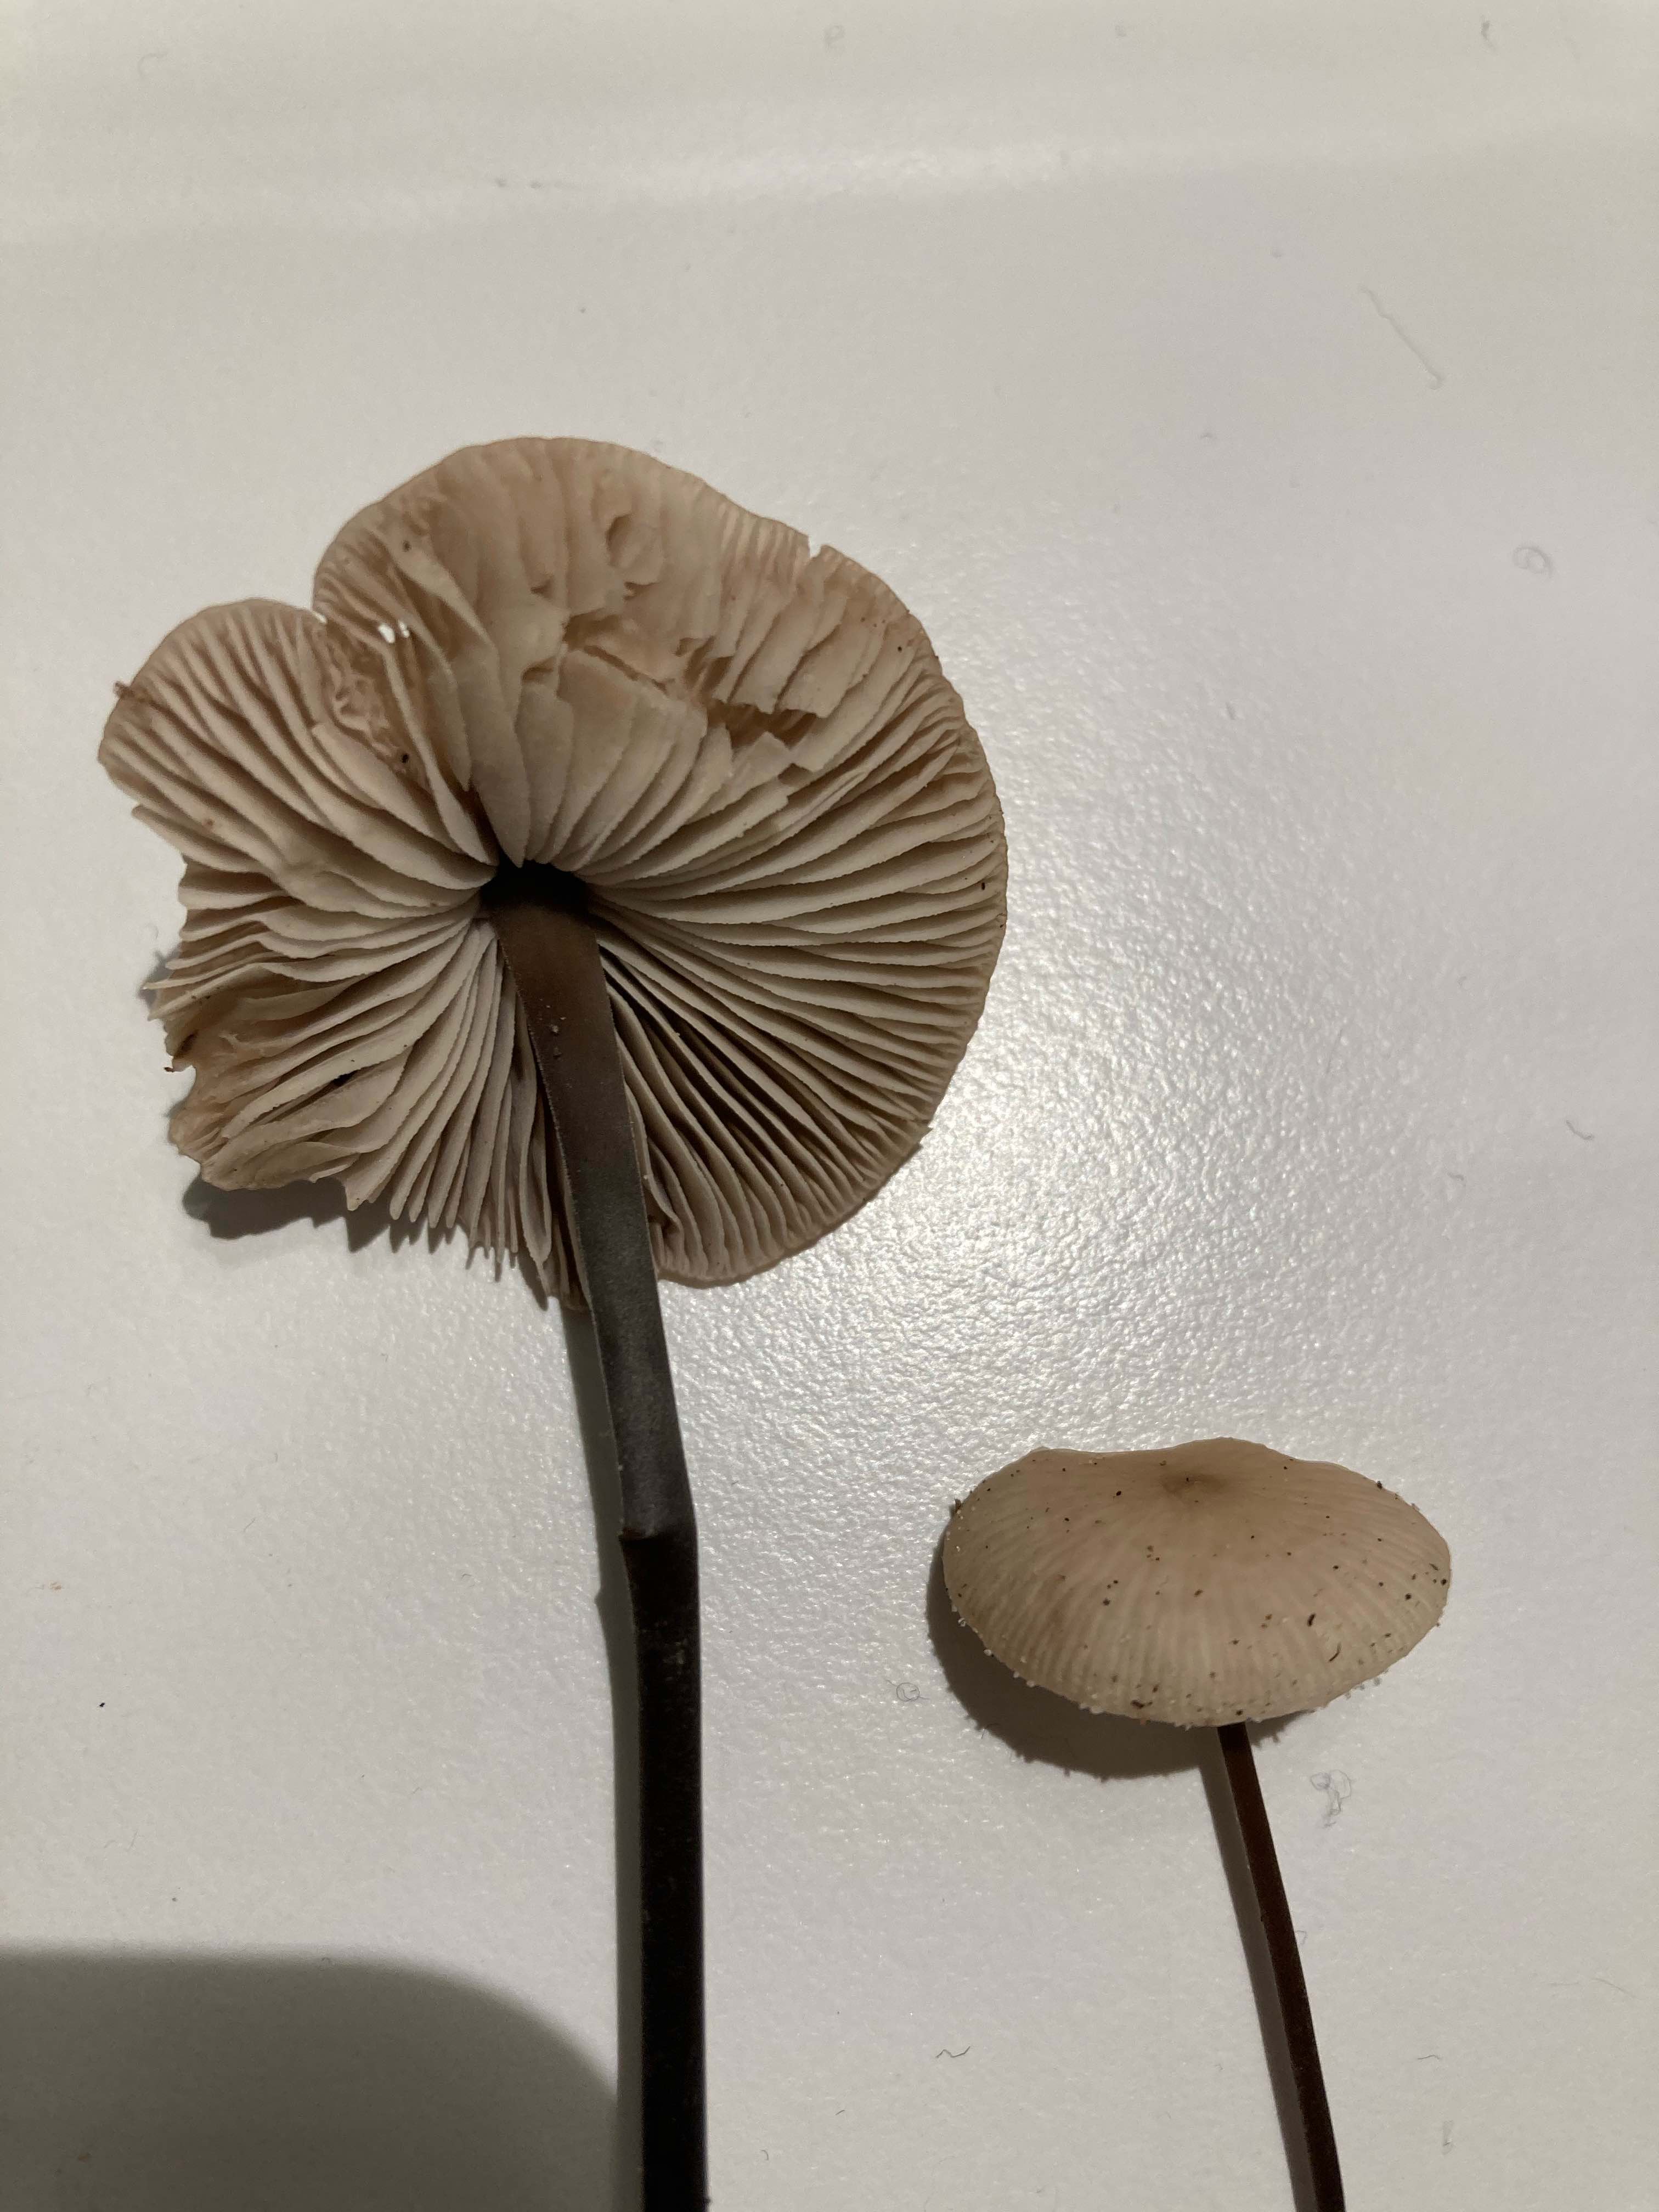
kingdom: Fungi
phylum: Basidiomycota
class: Agaricomycetes
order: Agaricales
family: Omphalotaceae
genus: Mycetinis
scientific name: Mycetinis alliaceus
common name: stor løghat
